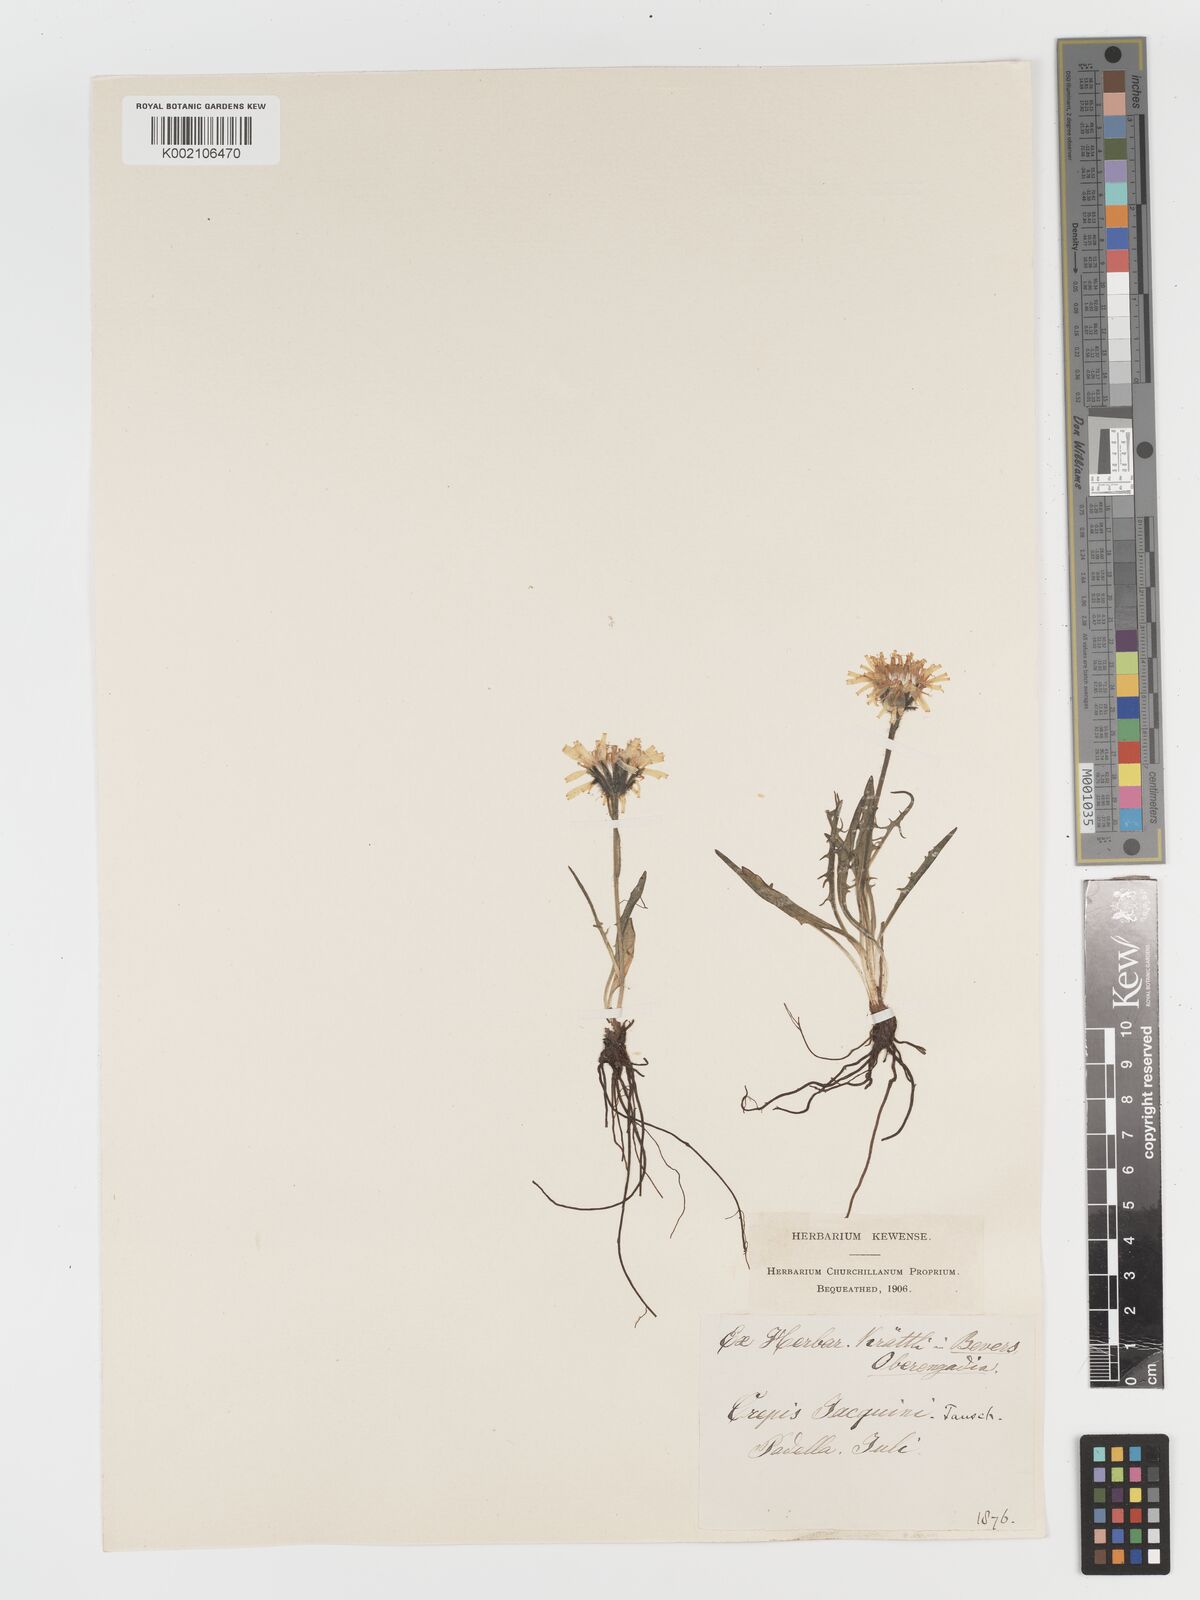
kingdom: Plantae
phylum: Tracheophyta
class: Magnoliopsida
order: Asterales
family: Asteraceae
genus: Crepis
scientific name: Crepis jacquinii
